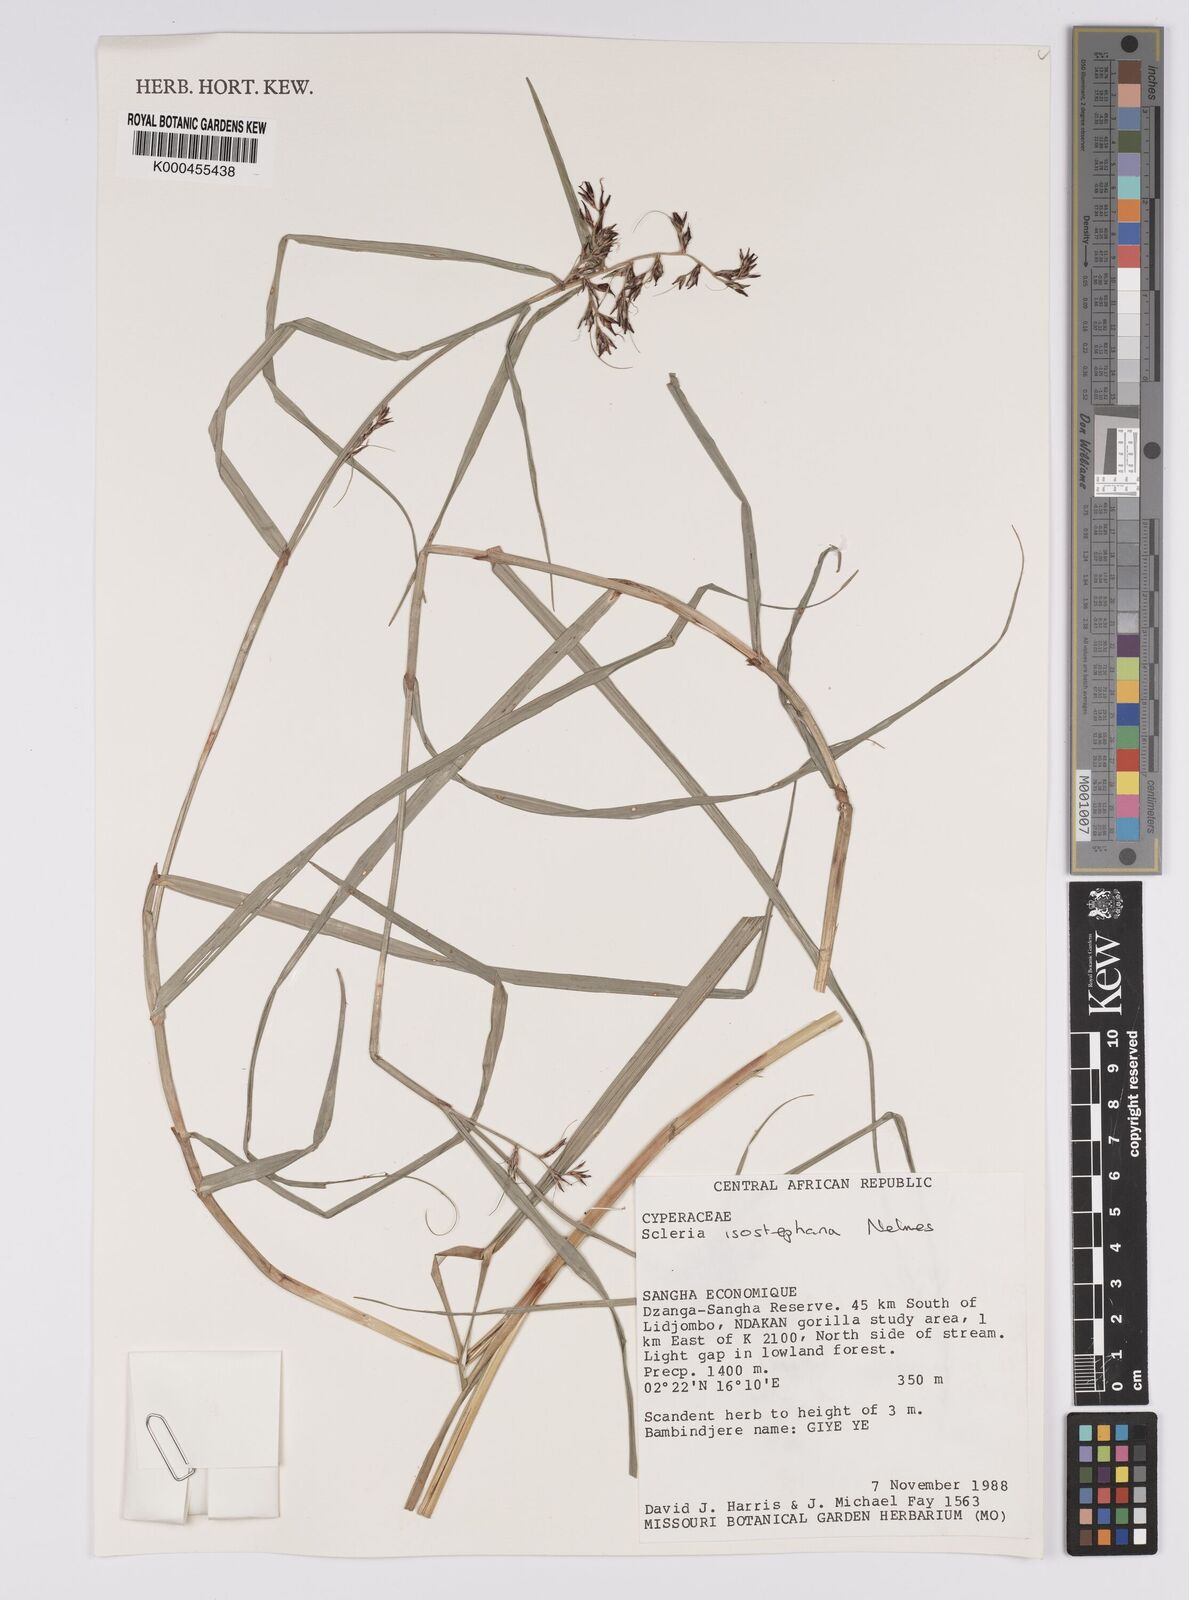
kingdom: Plantae
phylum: Tracheophyta
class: Liliopsida
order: Poales
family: Cyperaceae
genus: Scleria
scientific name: Scleria iostephana
